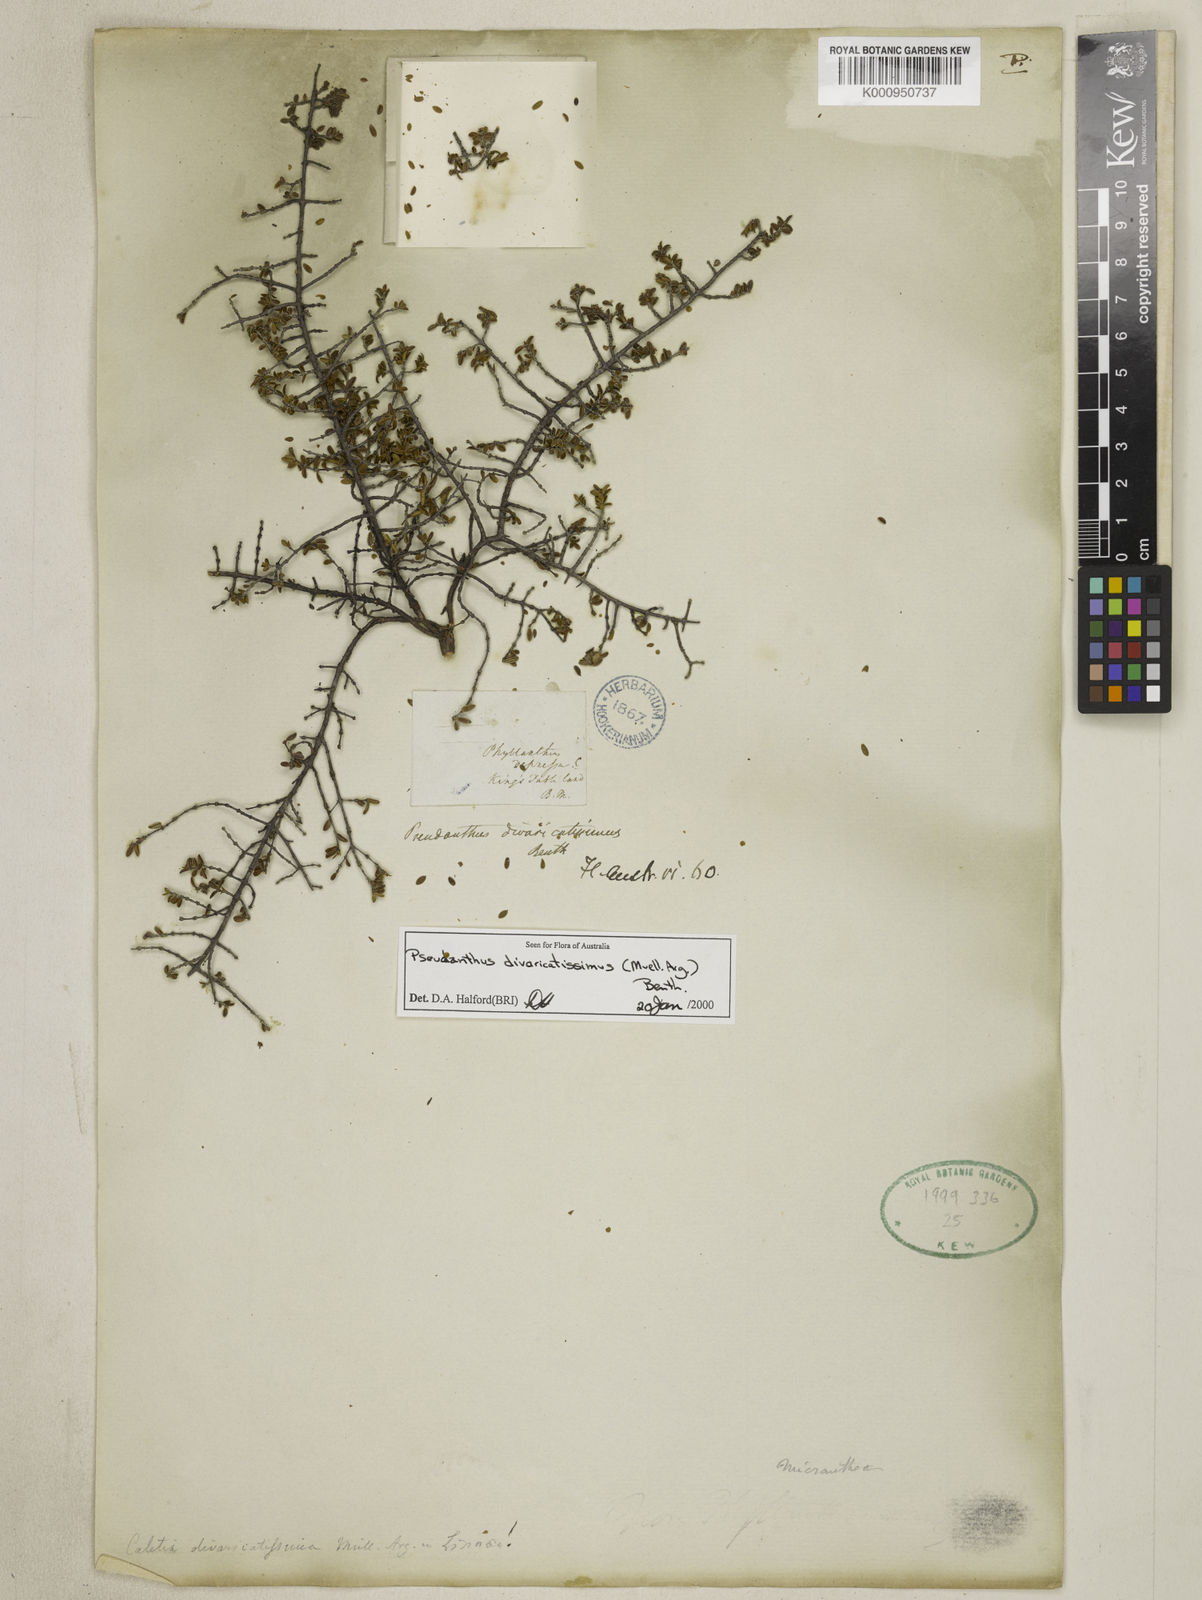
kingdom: Plantae
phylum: Tracheophyta
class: Magnoliopsida
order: Malpighiales
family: Picrodendraceae
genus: Pseudanthus
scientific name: Pseudanthus
